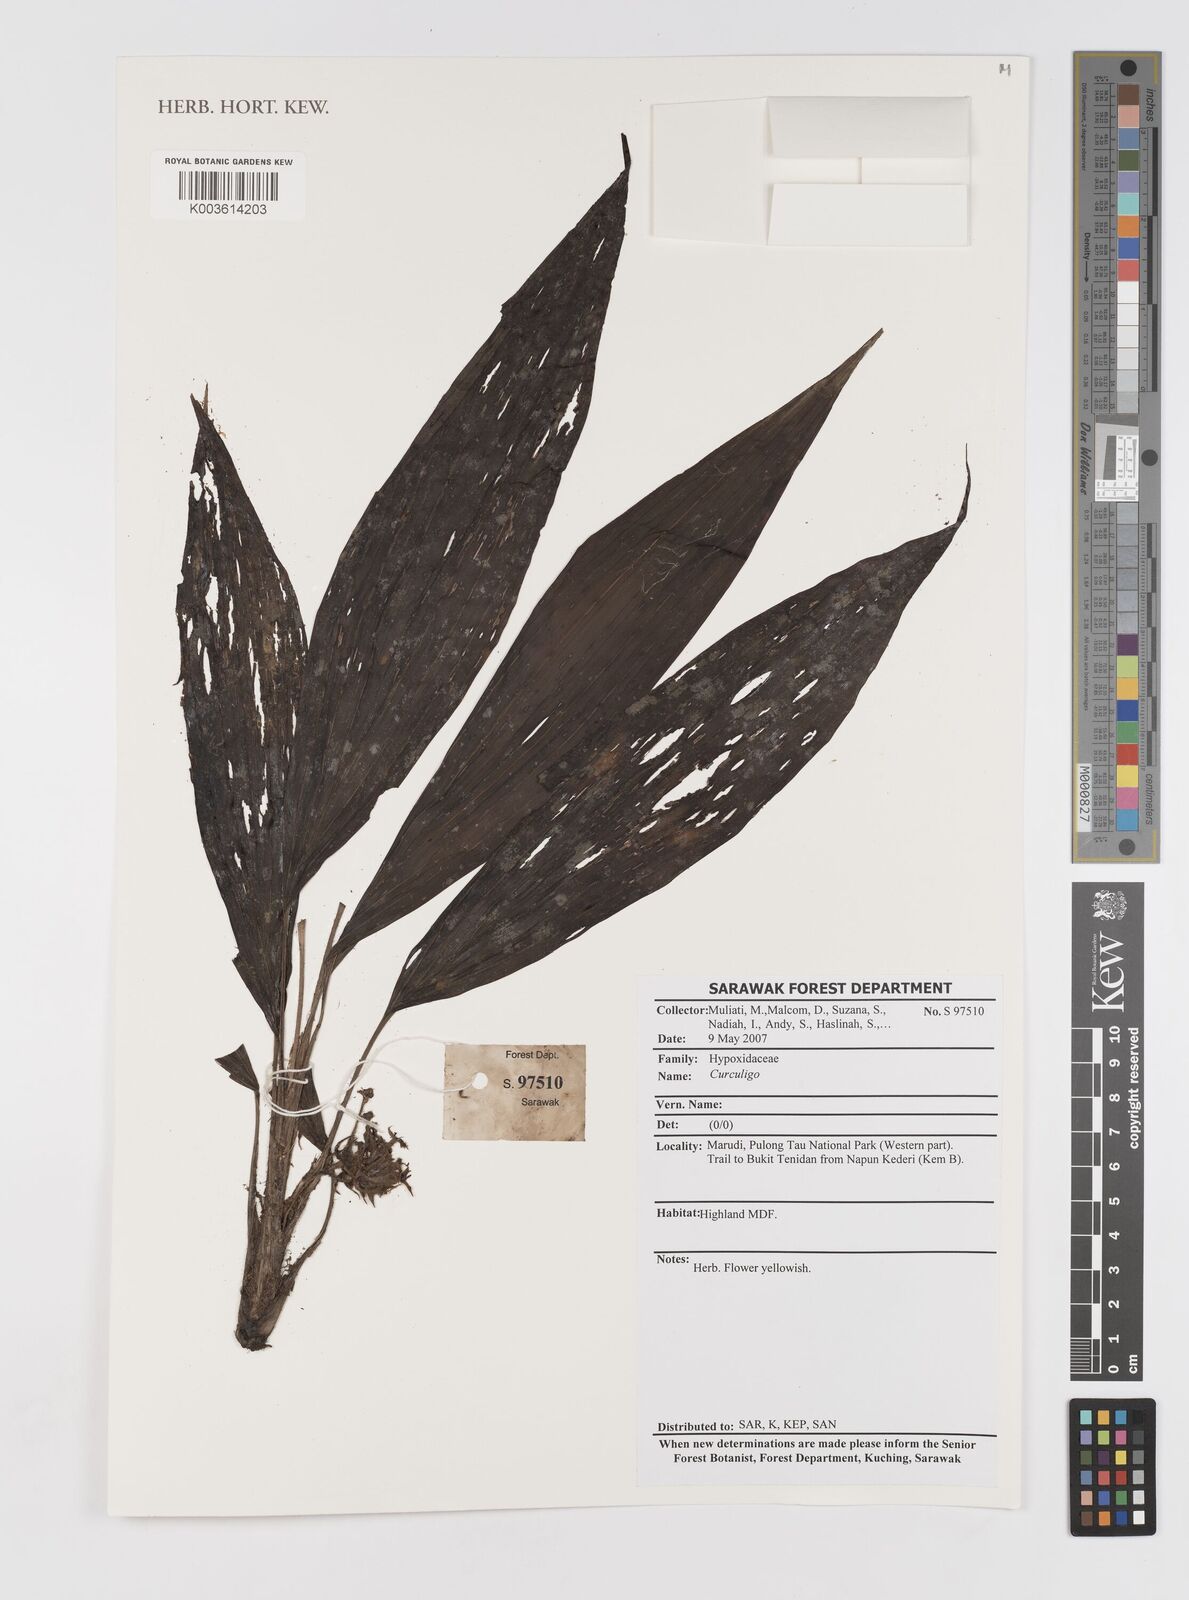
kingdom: Plantae
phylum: Tracheophyta
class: Liliopsida
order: Asparagales
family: Hypoxidaceae
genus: Curculigo
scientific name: Curculigo
